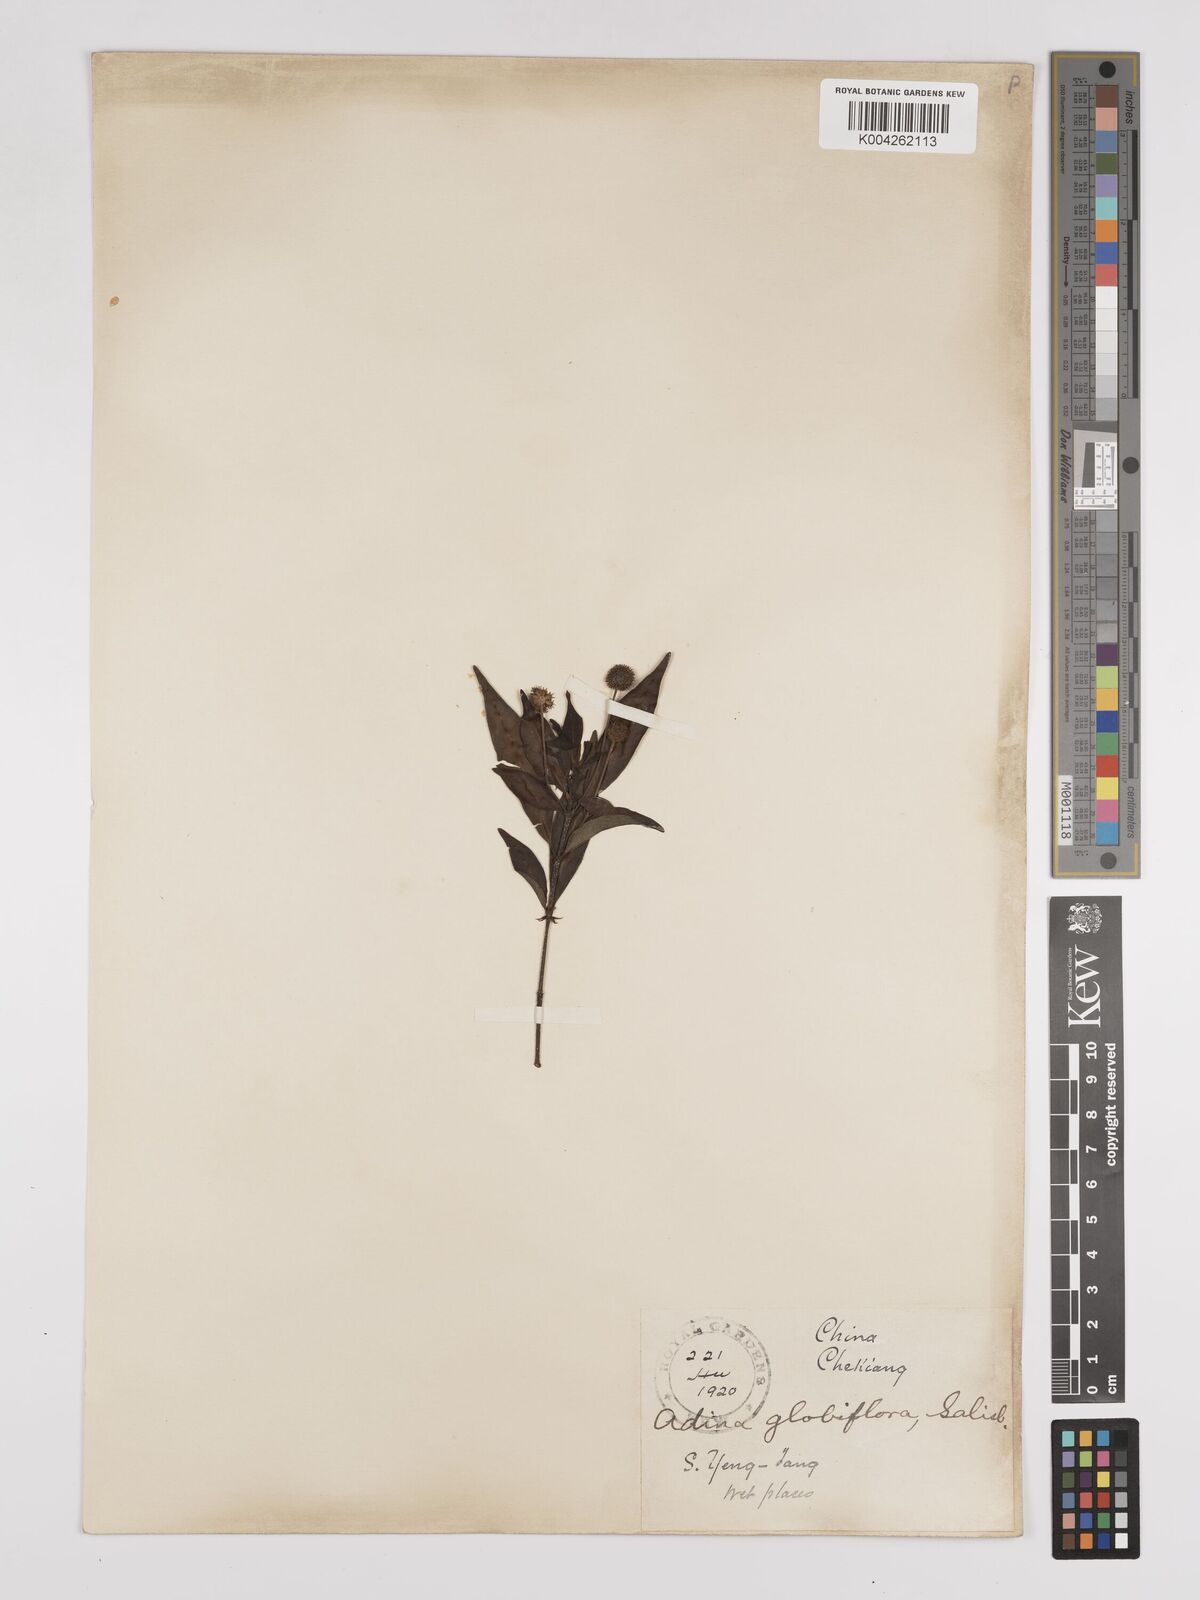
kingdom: Plantae
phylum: Tracheophyta
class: Magnoliopsida
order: Gentianales
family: Rubiaceae
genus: Adina
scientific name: Adina pilulifera
